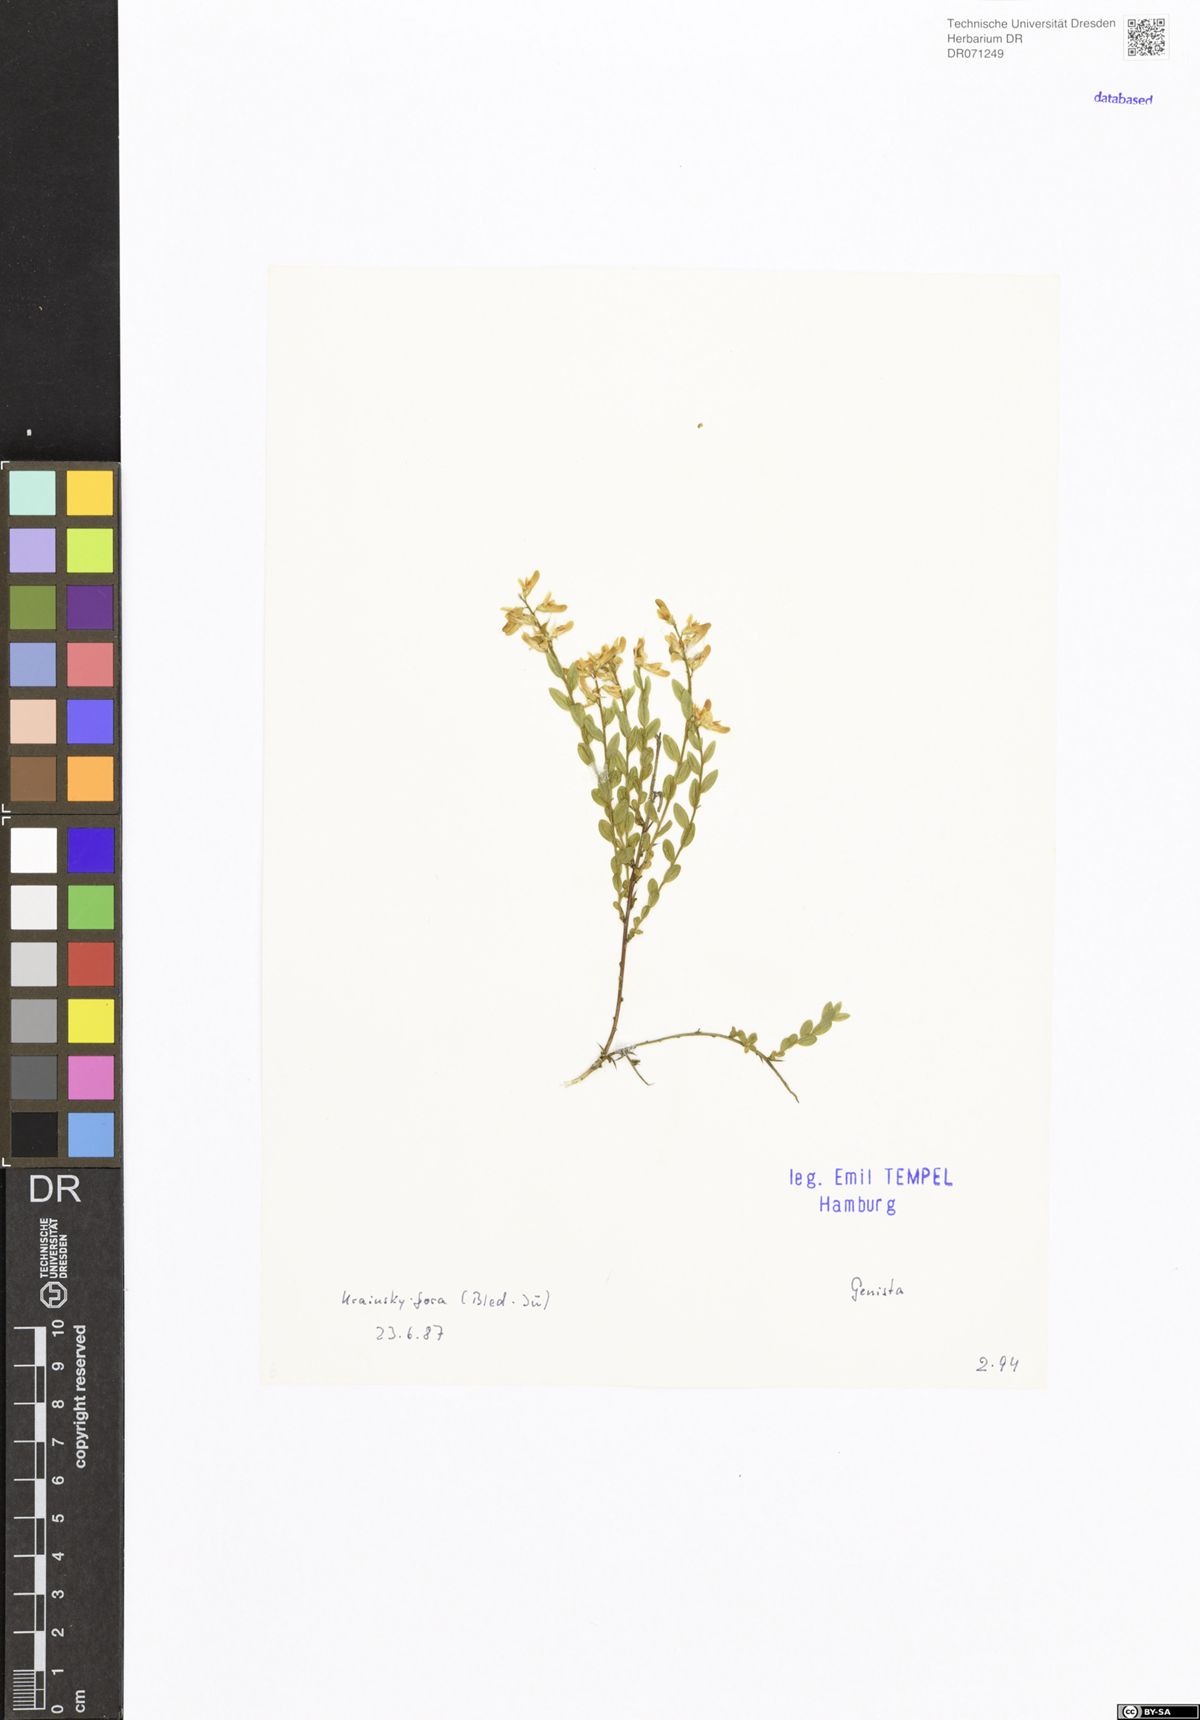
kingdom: Plantae
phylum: Tracheophyta
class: Magnoliopsida
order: Fabales
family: Fabaceae
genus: Genista
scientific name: Genista
